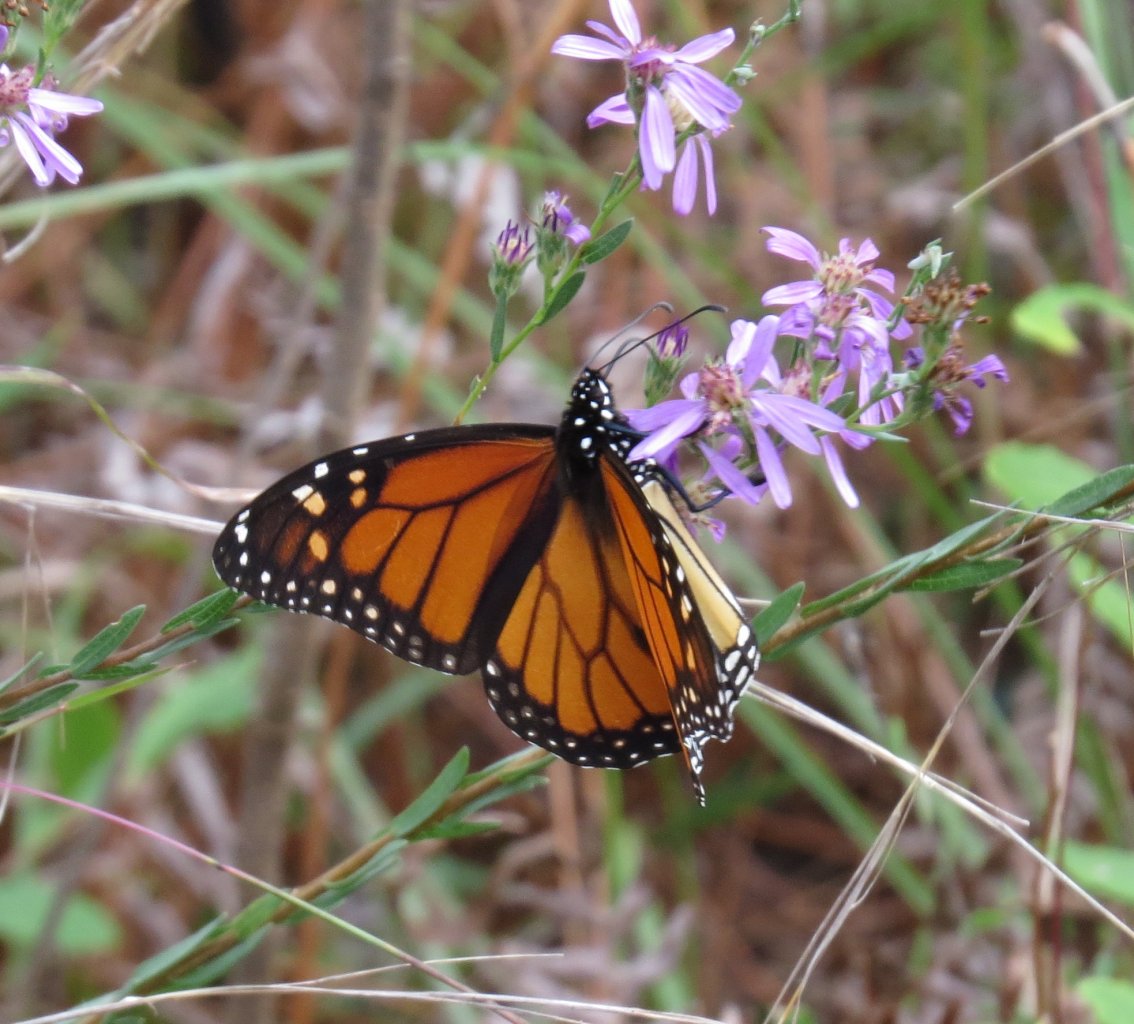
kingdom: Animalia
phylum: Arthropoda
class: Insecta
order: Lepidoptera
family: Nymphalidae
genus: Danaus
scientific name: Danaus plexippus
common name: Monarch
